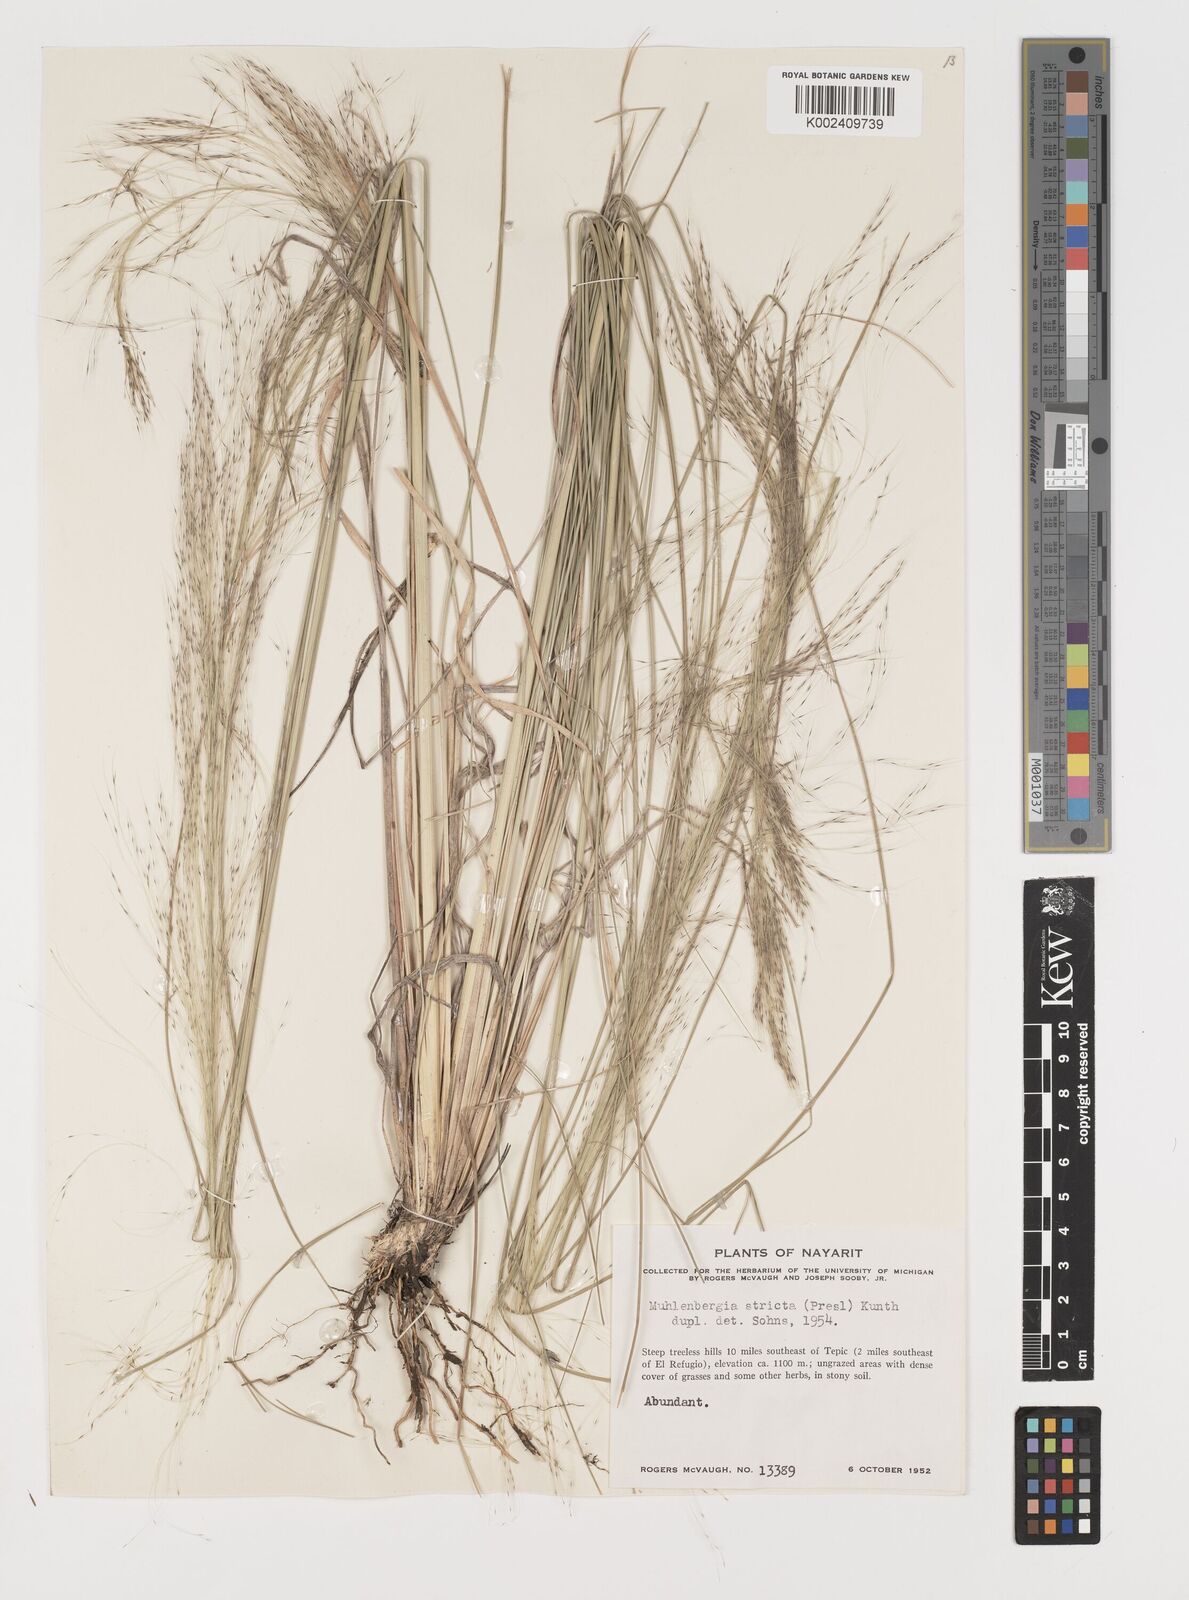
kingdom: Plantae
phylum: Tracheophyta
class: Liliopsida
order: Poales
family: Poaceae
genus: Muhlenbergia
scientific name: Muhlenbergia rigida
